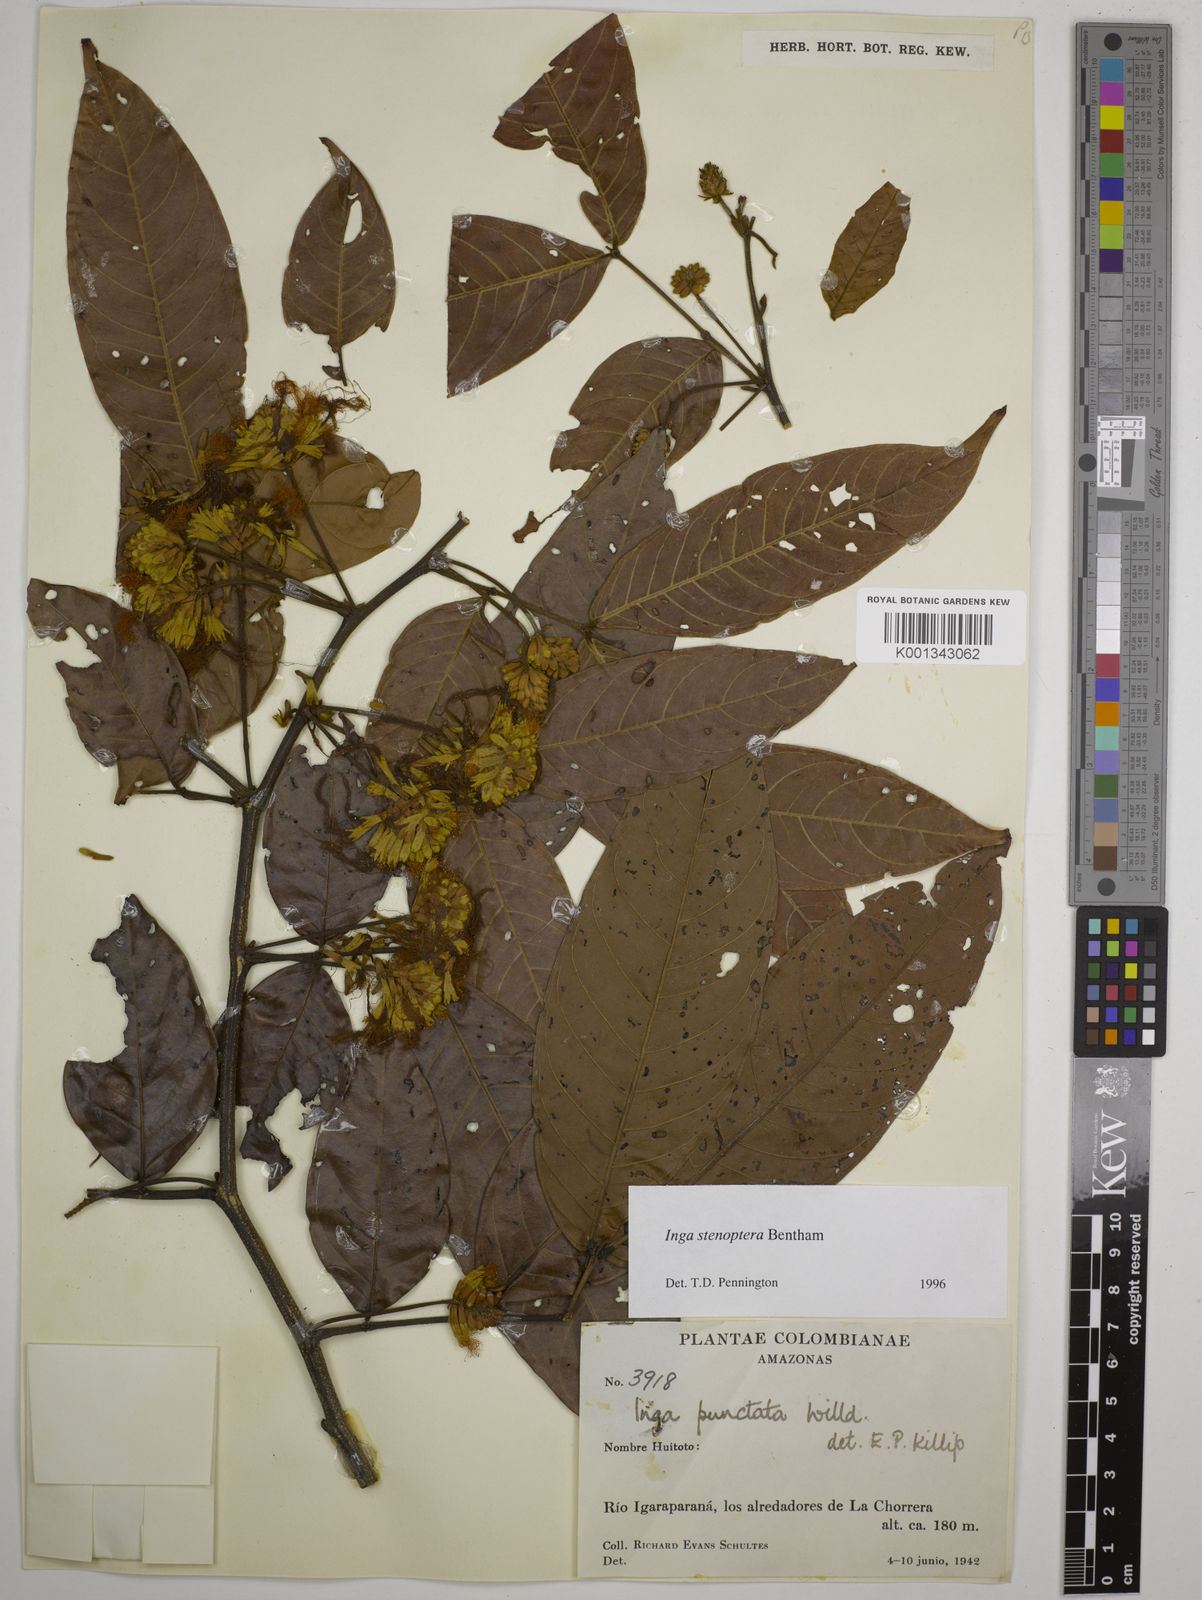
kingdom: Plantae
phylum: Tracheophyta
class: Magnoliopsida
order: Fabales
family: Fabaceae
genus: Inga
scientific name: Inga stenoptera
